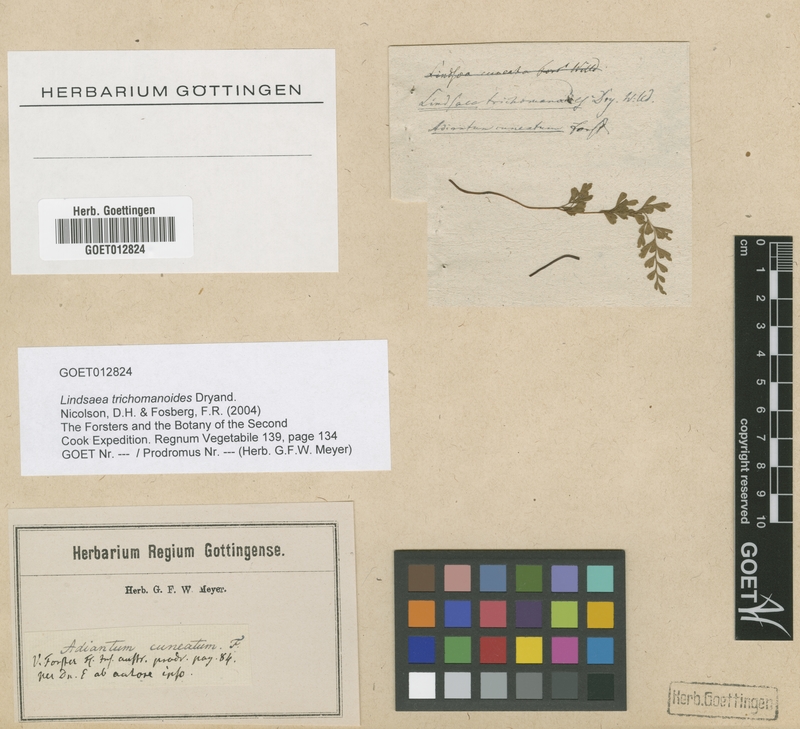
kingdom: Plantae
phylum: Tracheophyta
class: Polypodiopsida
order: Polypodiales
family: Lindsaeaceae
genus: Lindsaea
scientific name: Lindsaea trichomanoides
